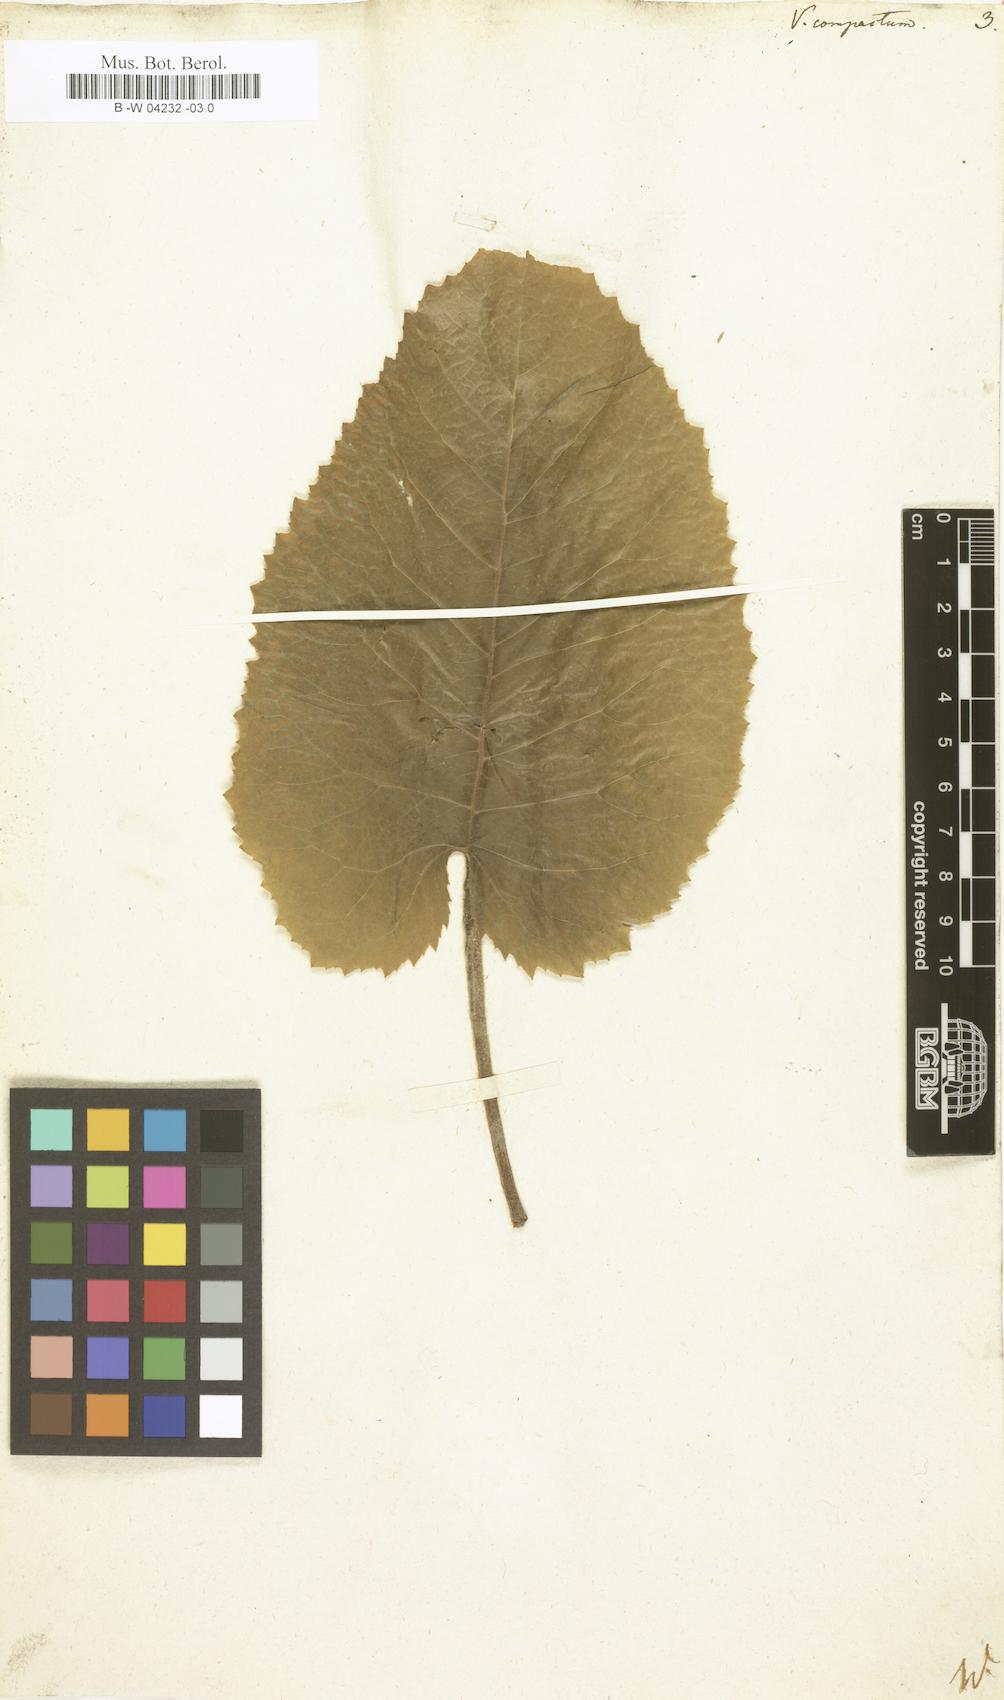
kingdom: Plantae
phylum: Tracheophyta
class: Magnoliopsida
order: Lamiales
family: Scrophulariaceae
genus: Verbascum
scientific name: Verbascum
